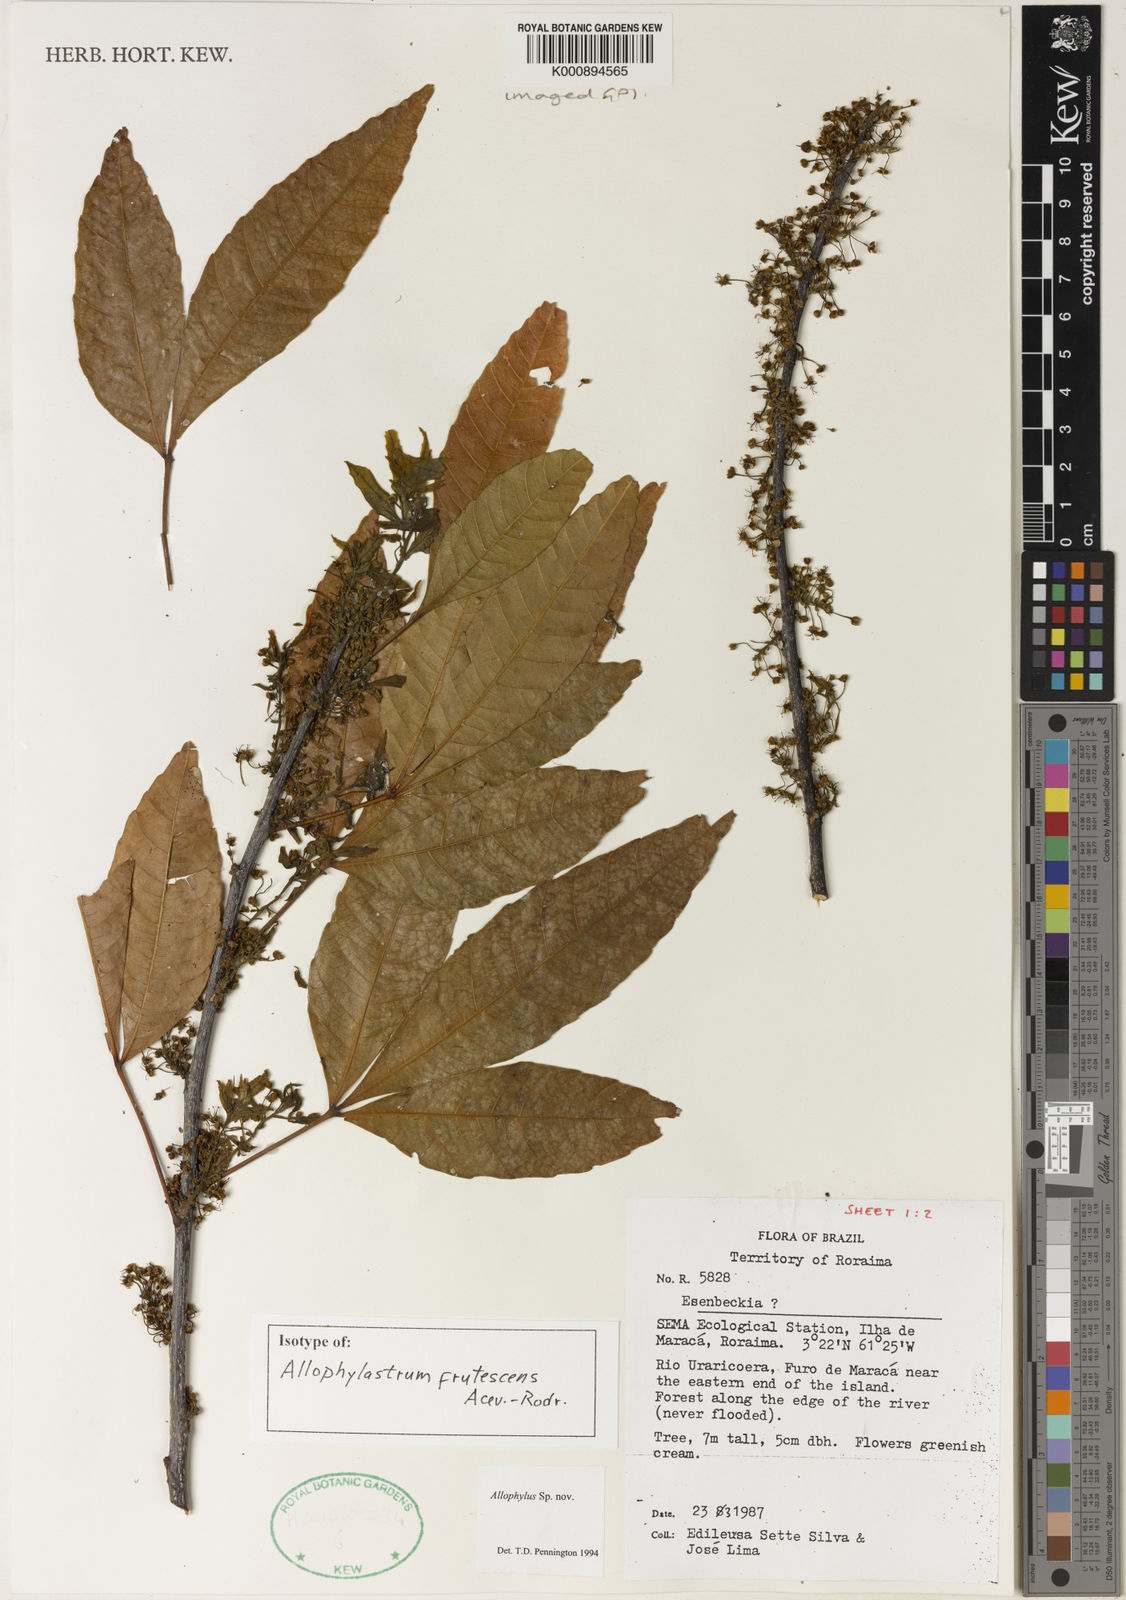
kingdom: Plantae
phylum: Tracheophyta
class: Magnoliopsida
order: Sapindales
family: Sapindaceae
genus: Allophylastrum
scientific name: Allophylastrum frutescens
